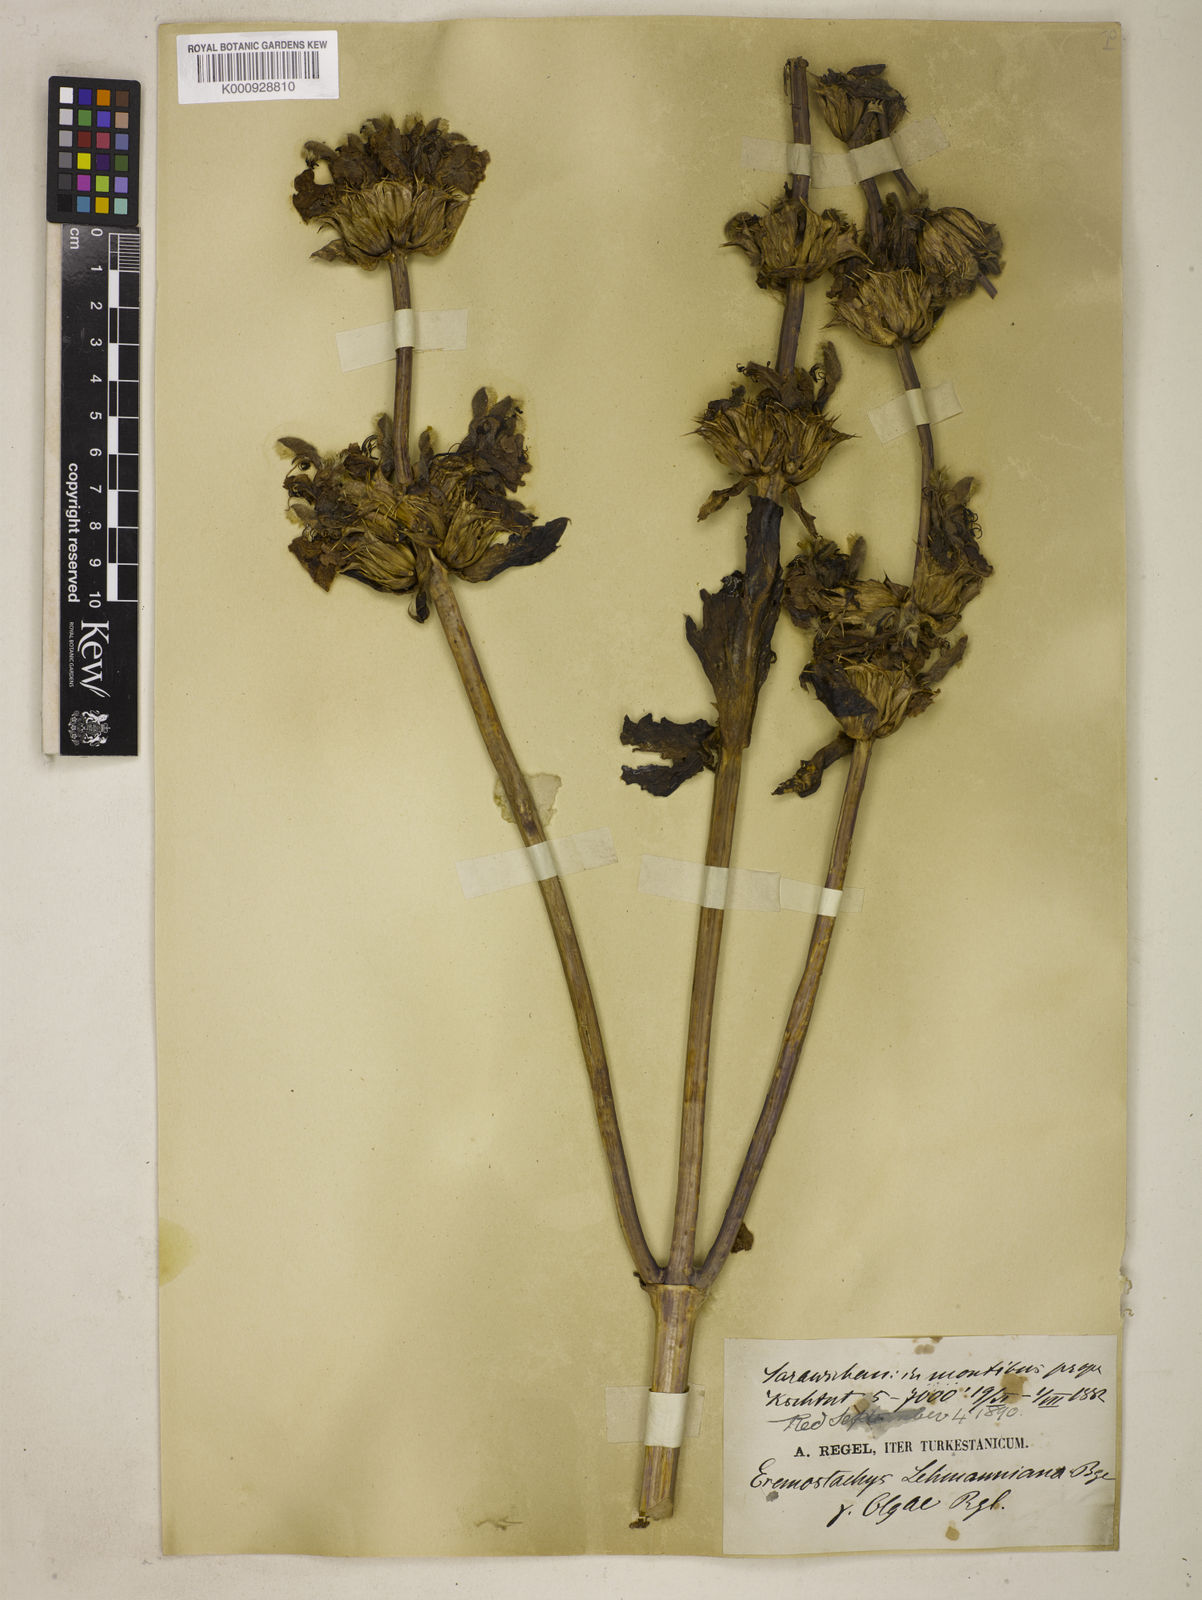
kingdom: Plantae
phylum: Tracheophyta
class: Magnoliopsida
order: Lamiales
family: Lamiaceae
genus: Phlomoides
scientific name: Phlomoides lehmanniana
